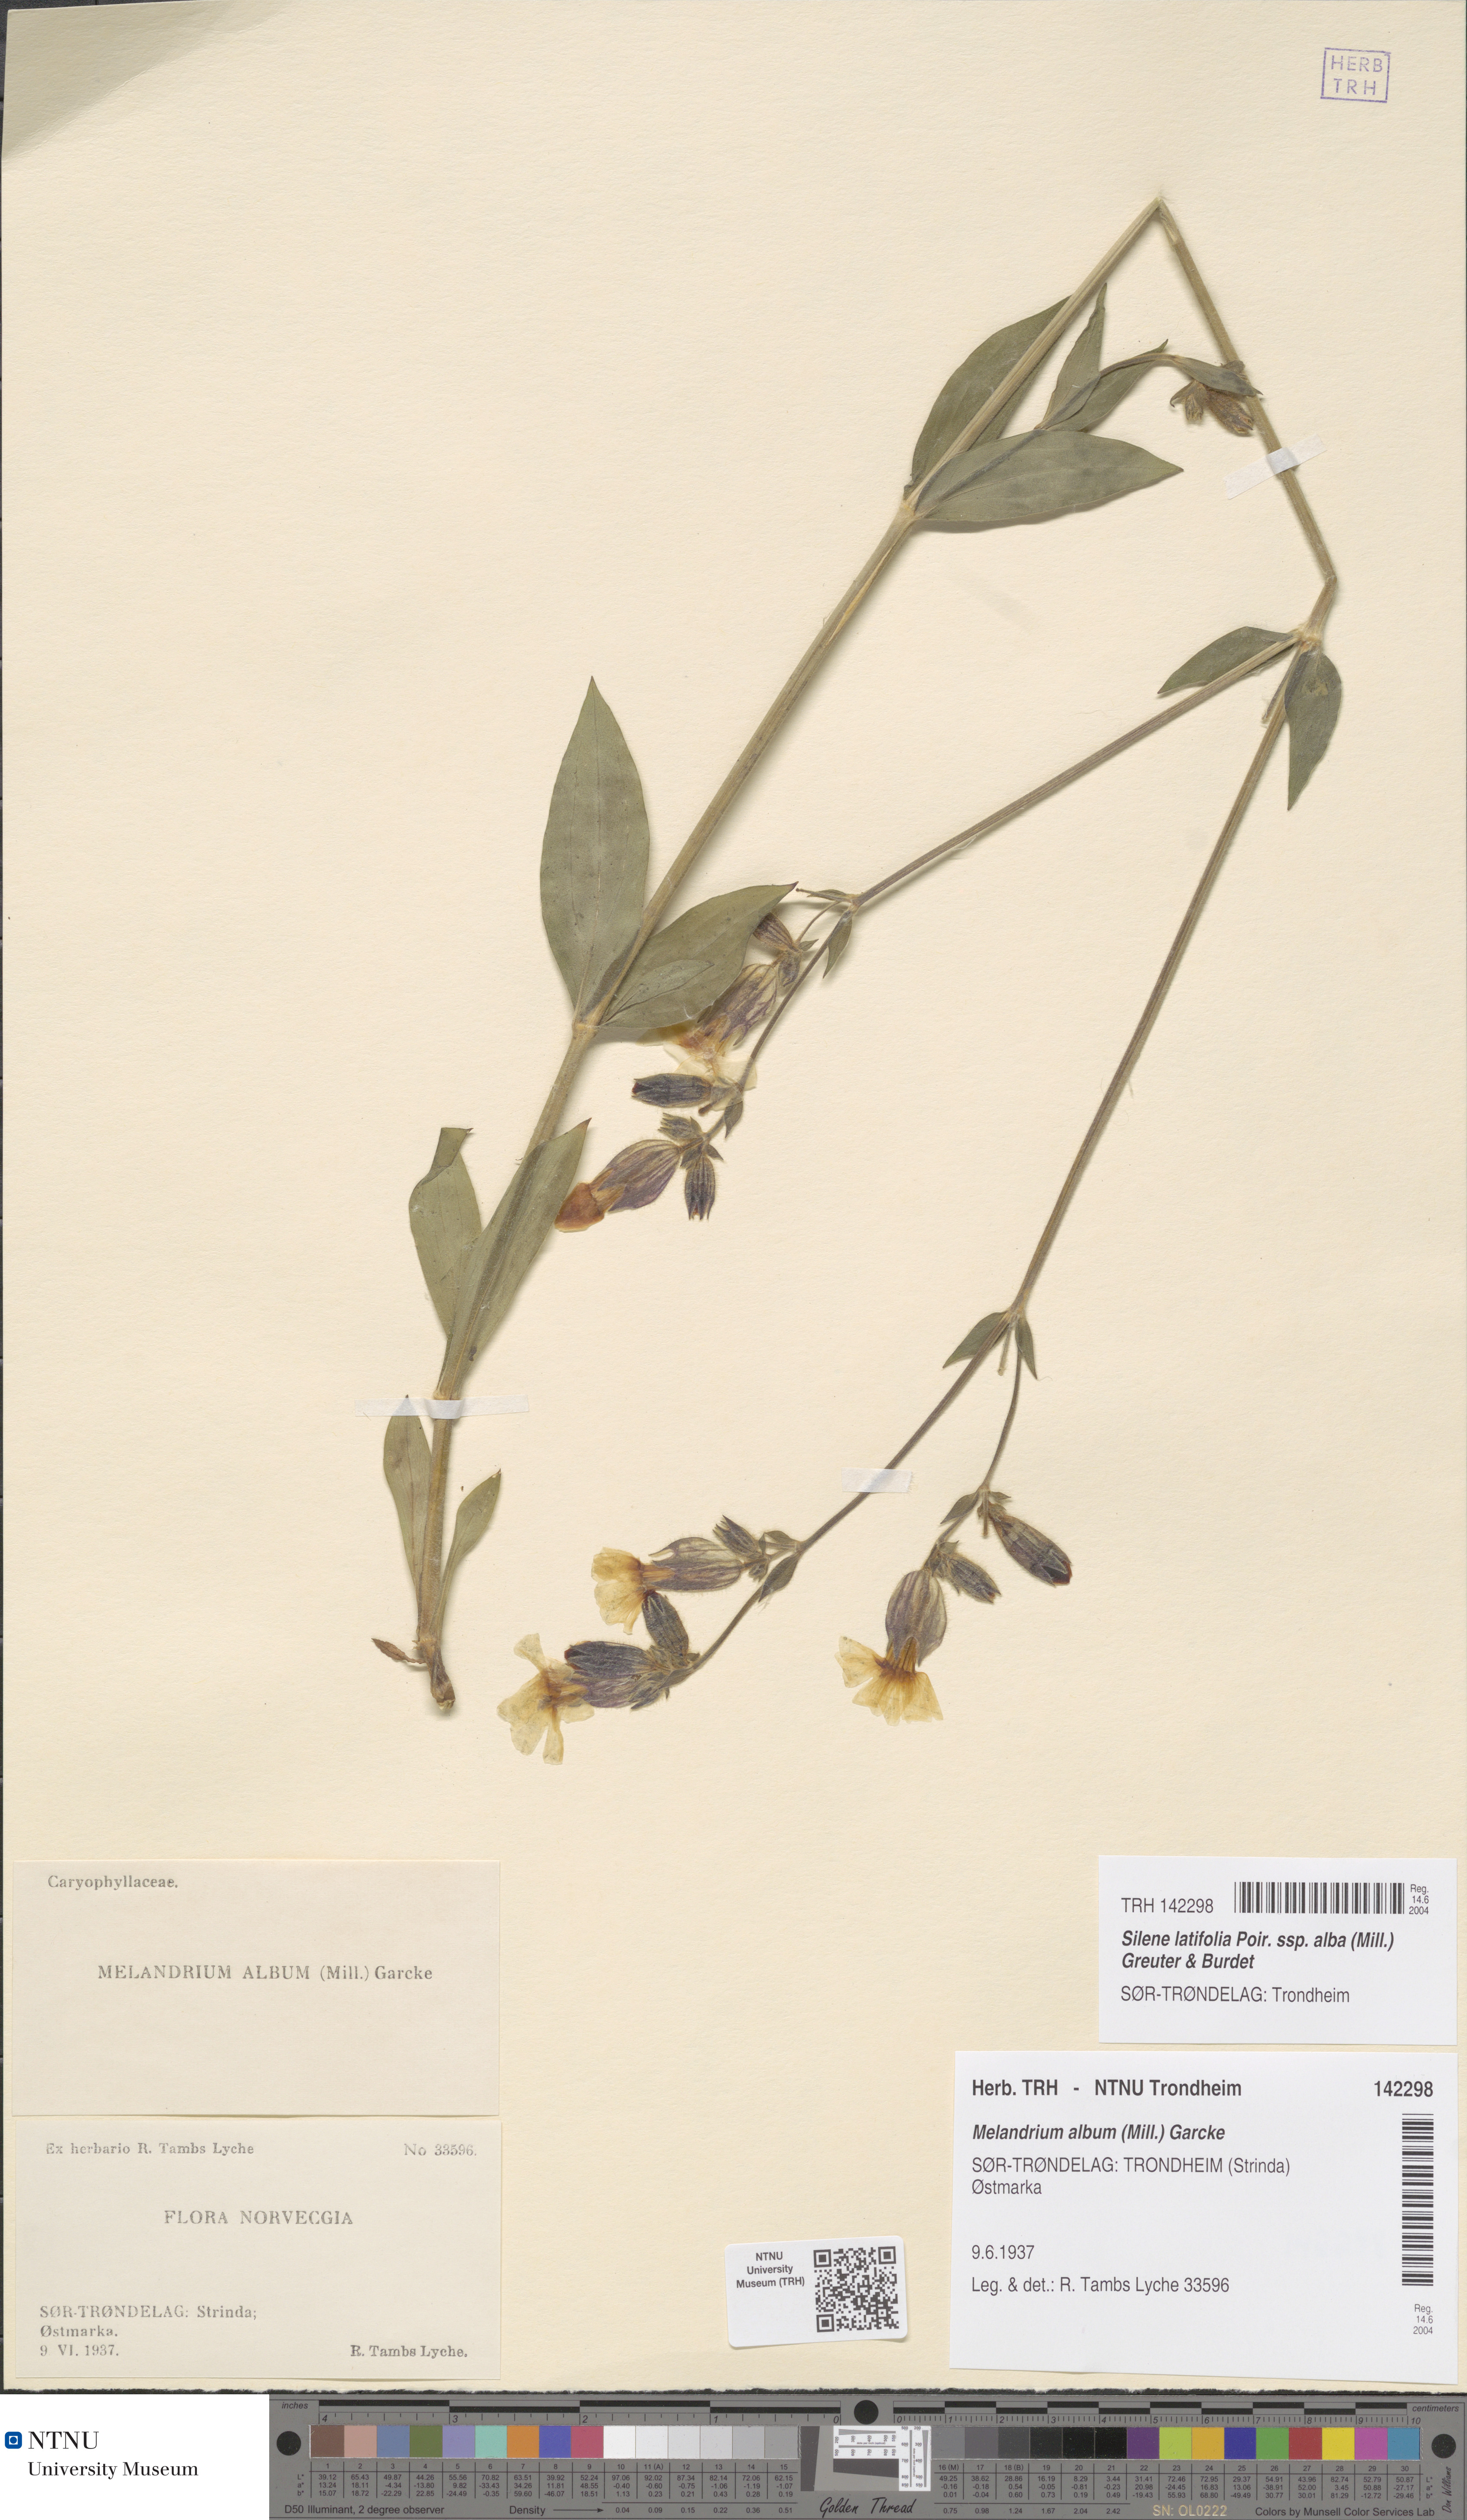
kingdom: Plantae
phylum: Tracheophyta
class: Magnoliopsida
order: Caryophyllales
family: Caryophyllaceae
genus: Silene
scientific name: Silene latifolia
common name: White campion
